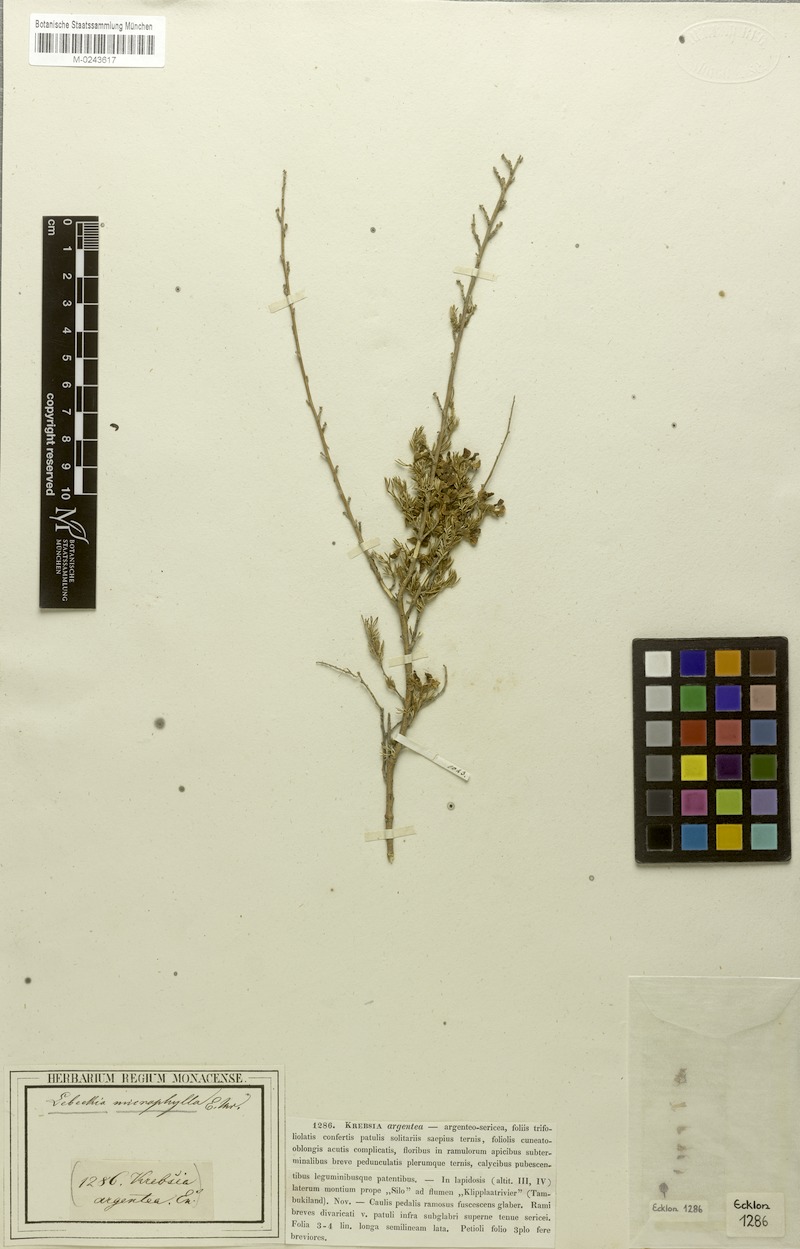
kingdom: Plantae
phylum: Tracheophyta
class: Magnoliopsida
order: Fabales
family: Fabaceae
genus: Lotononis
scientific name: Lotononis caerulescens
